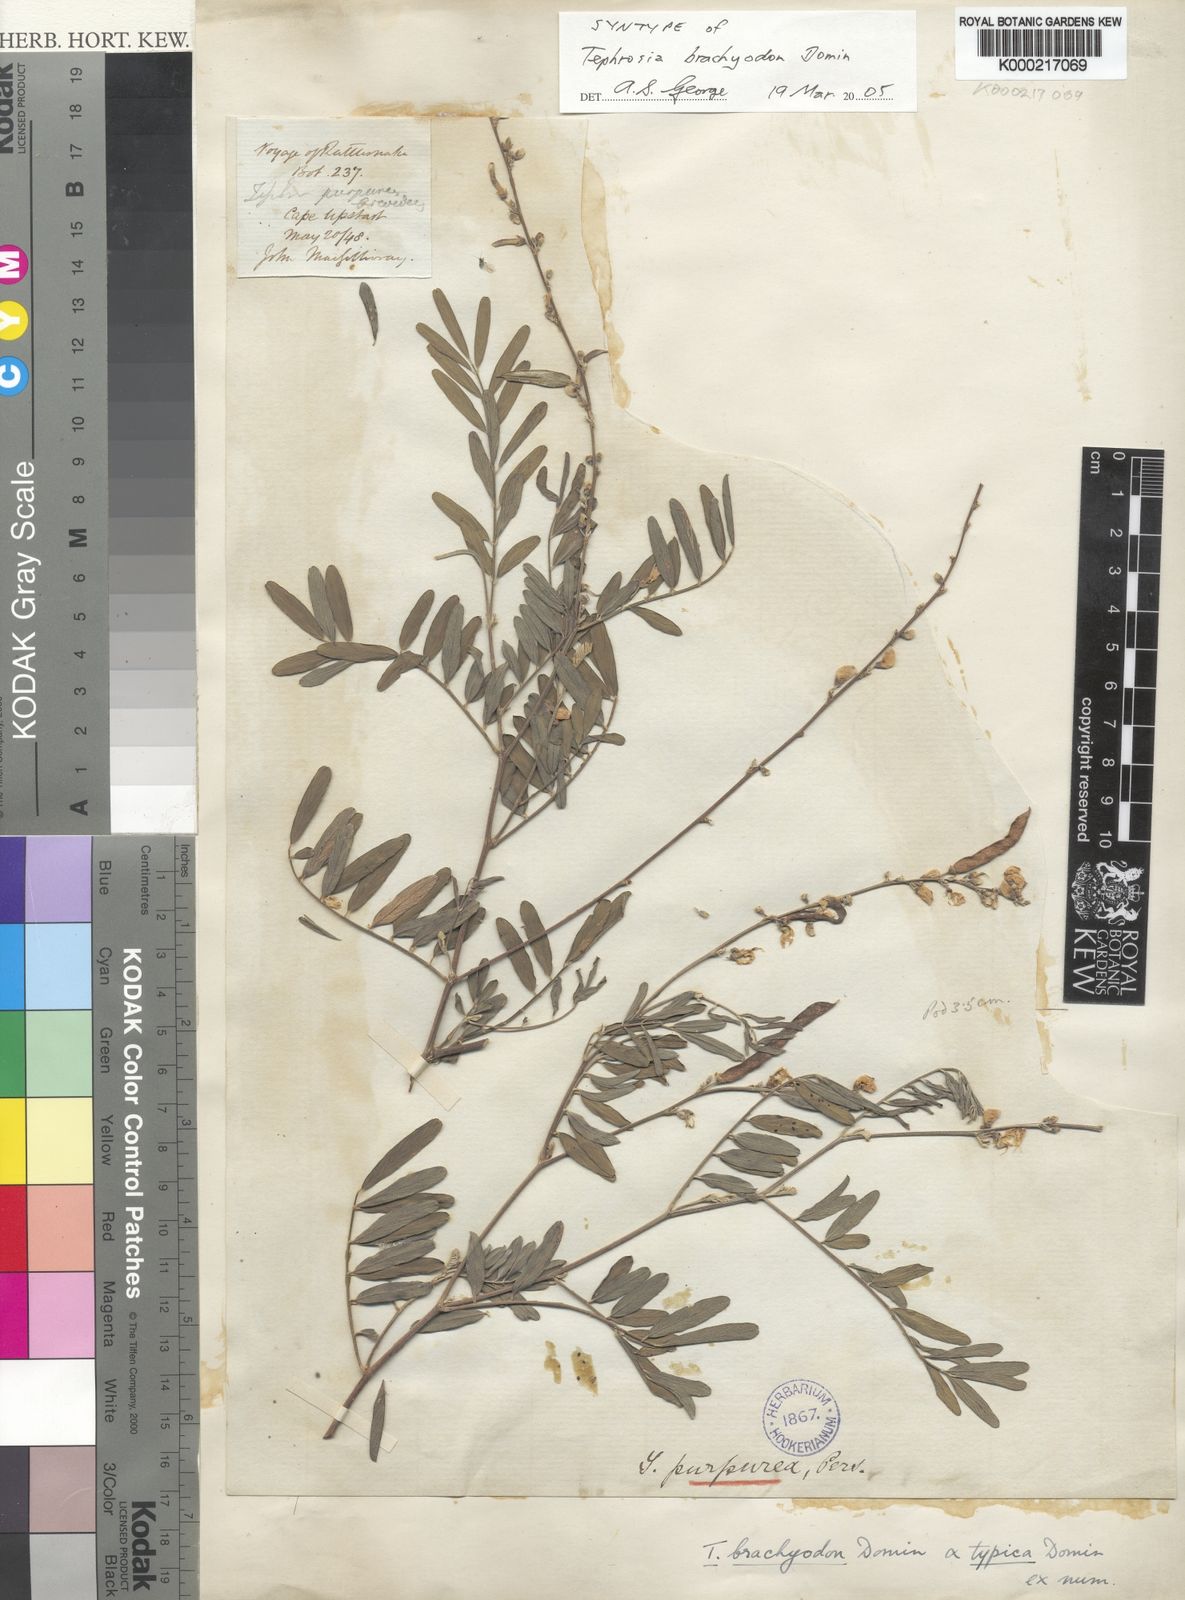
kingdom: Plantae
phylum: Tracheophyta
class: Magnoliopsida
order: Fabales
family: Fabaceae
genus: Tephrosia
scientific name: Tephrosia brachyodon
